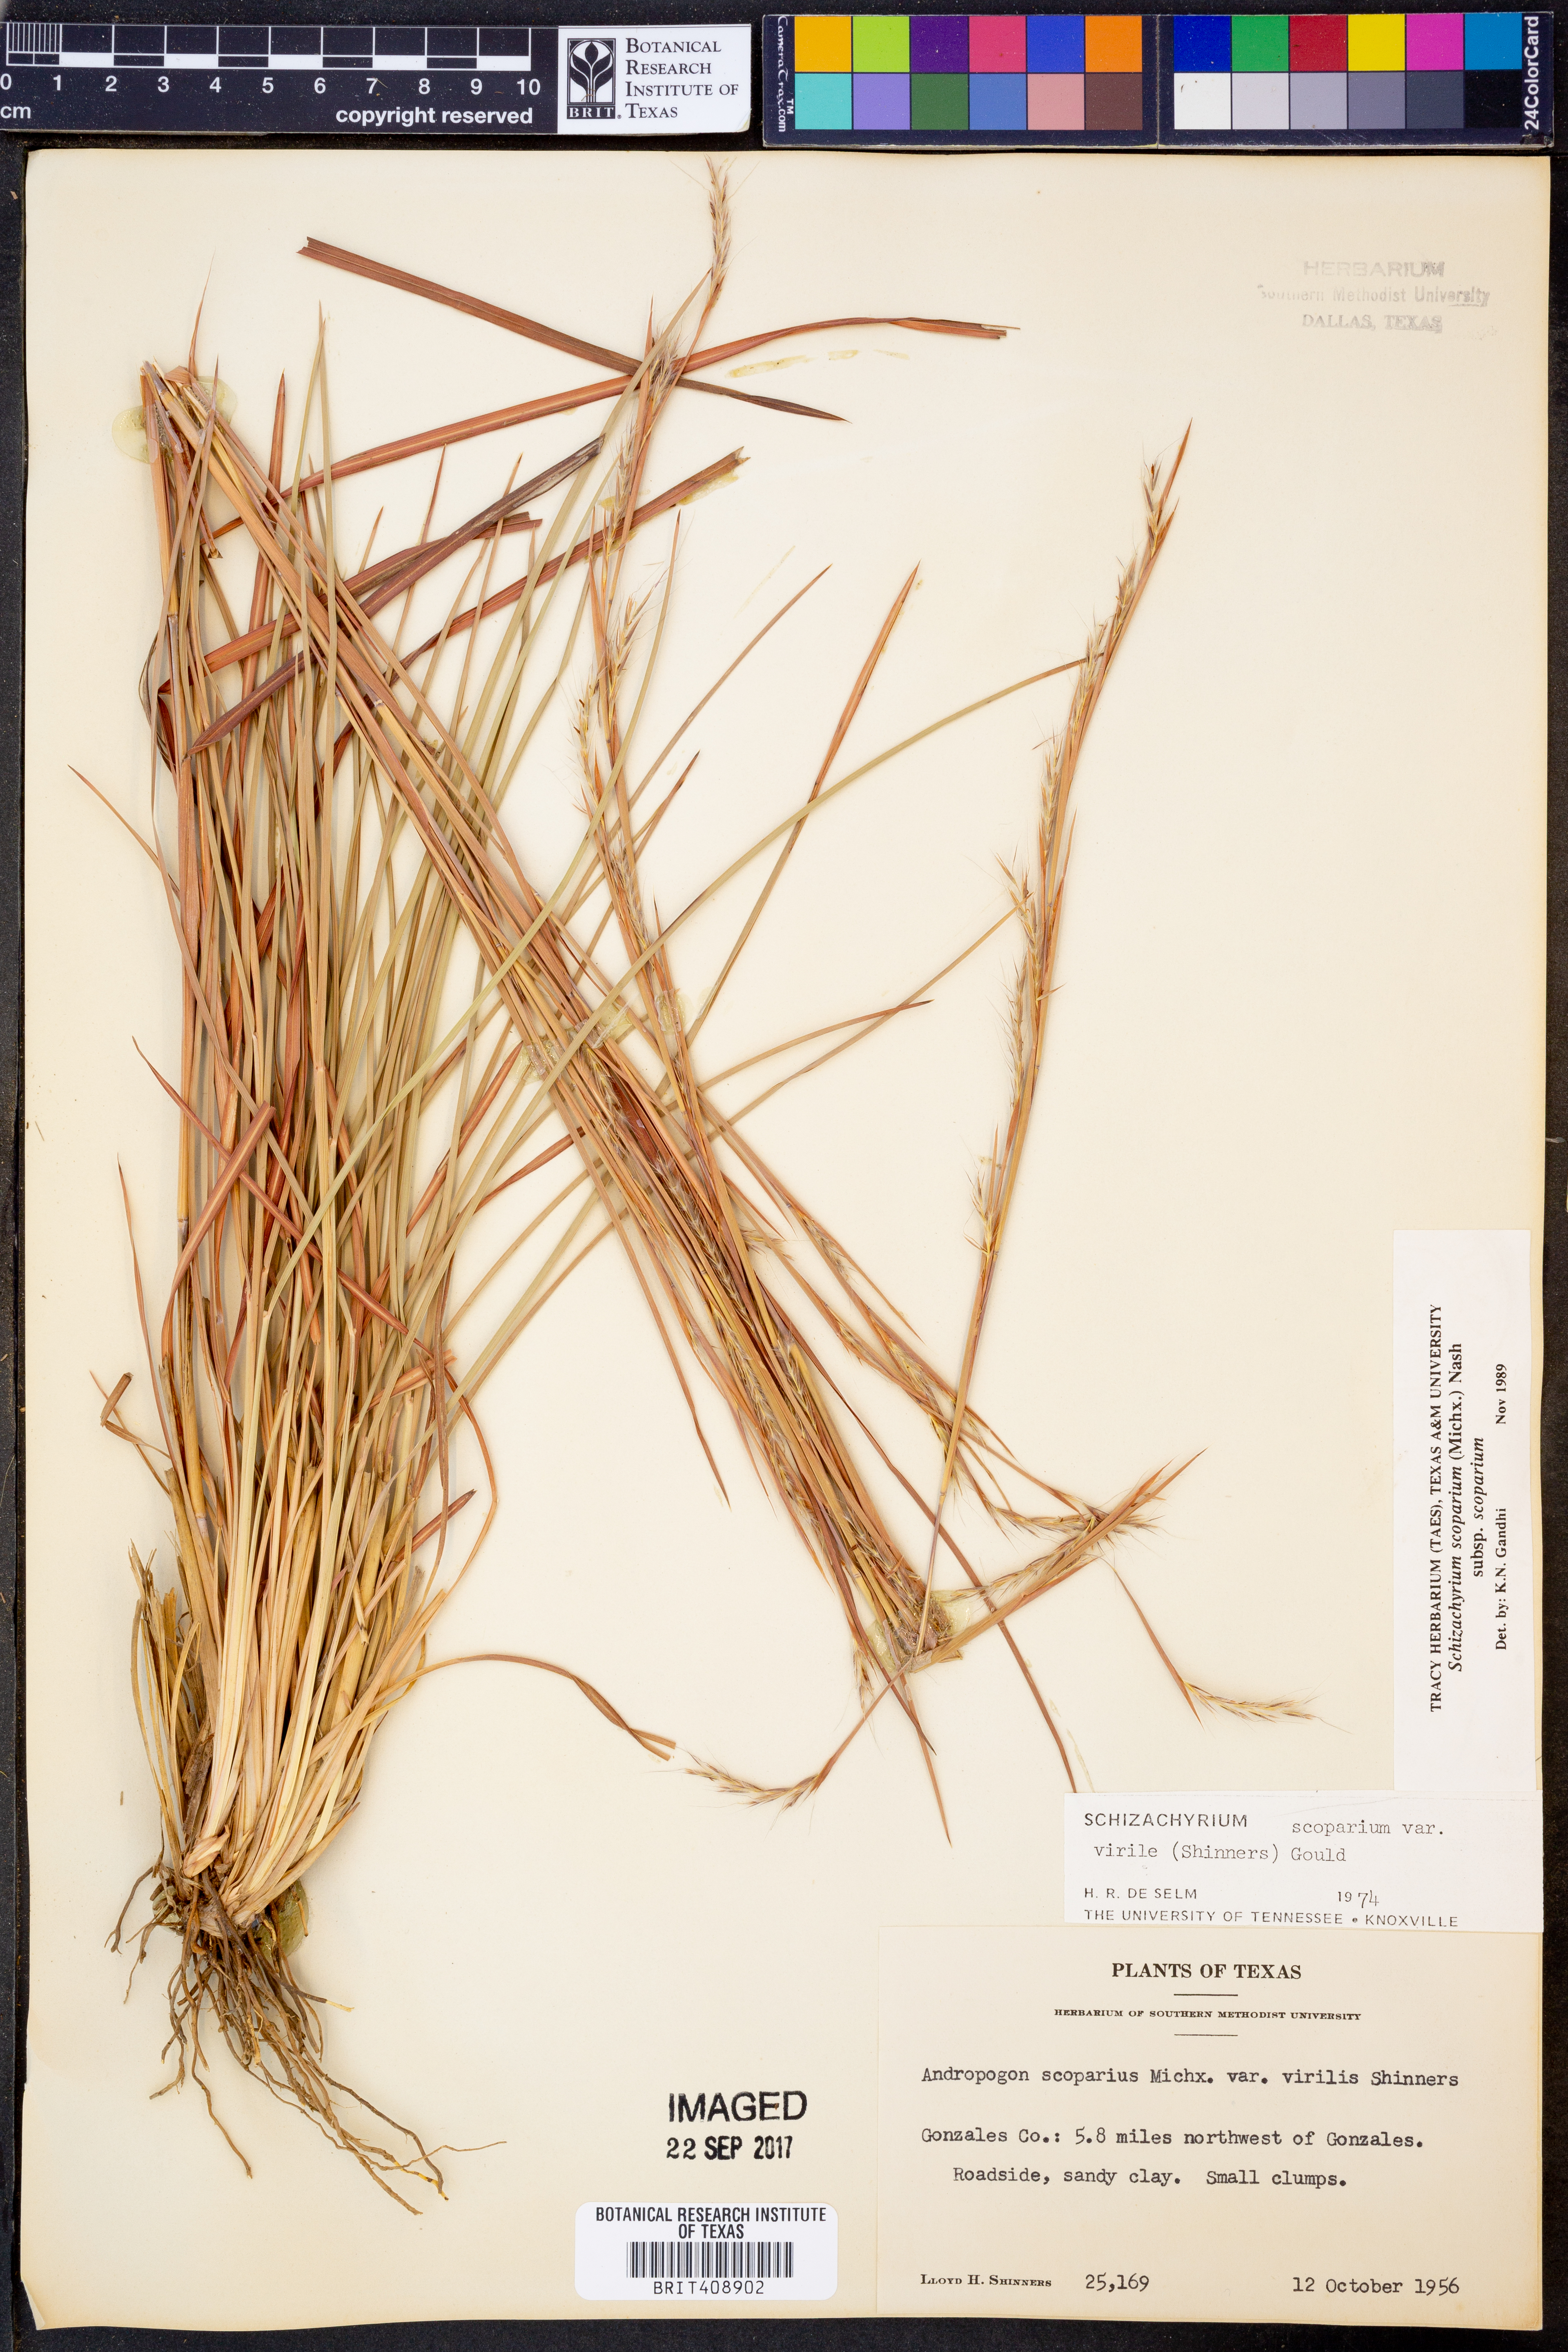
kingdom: Plantae
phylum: Tracheophyta
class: Liliopsida
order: Poales
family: Poaceae
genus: Schizachyrium
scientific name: Schizachyrium scoparium
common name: Little bluestem
